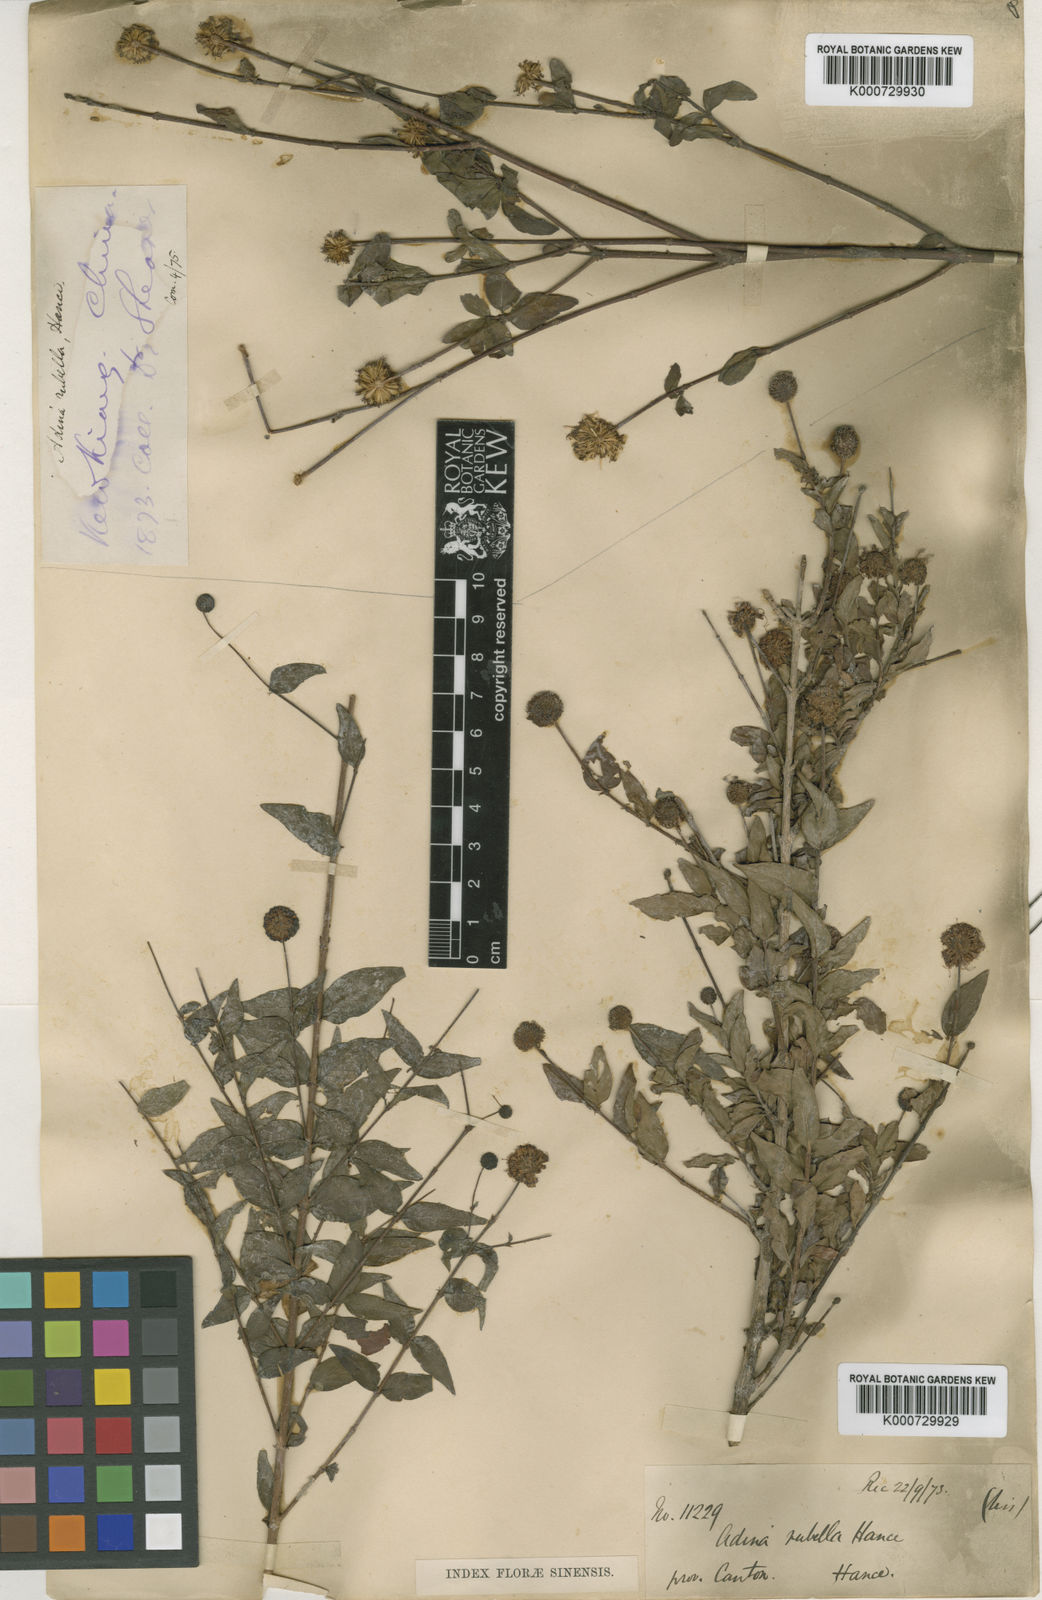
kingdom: Plantae
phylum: Tracheophyta
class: Magnoliopsida
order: Gentianales
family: Rubiaceae
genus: Adina
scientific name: Adina rubella
